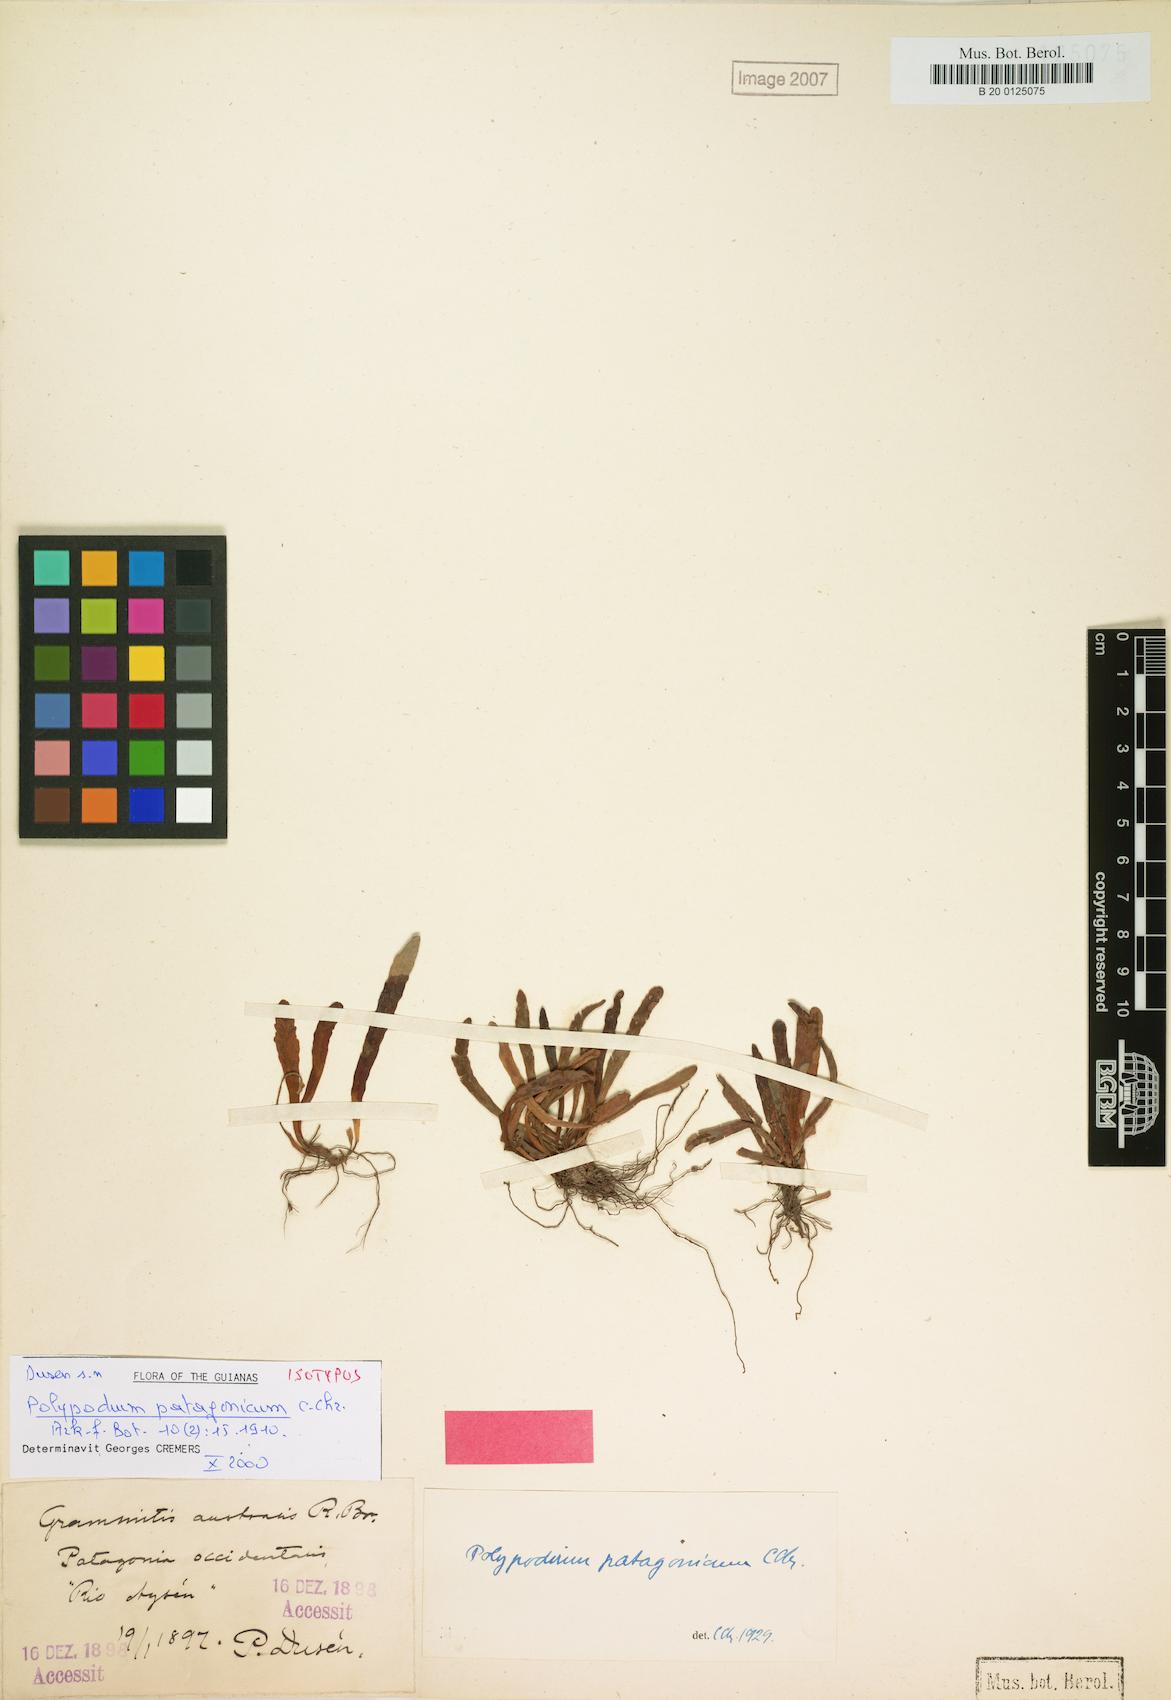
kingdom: Plantae
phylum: Tracheophyta
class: Polypodiopsida
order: Polypodiales
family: Polypodiaceae
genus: Notogrammitis
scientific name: Notogrammitis patagonica
